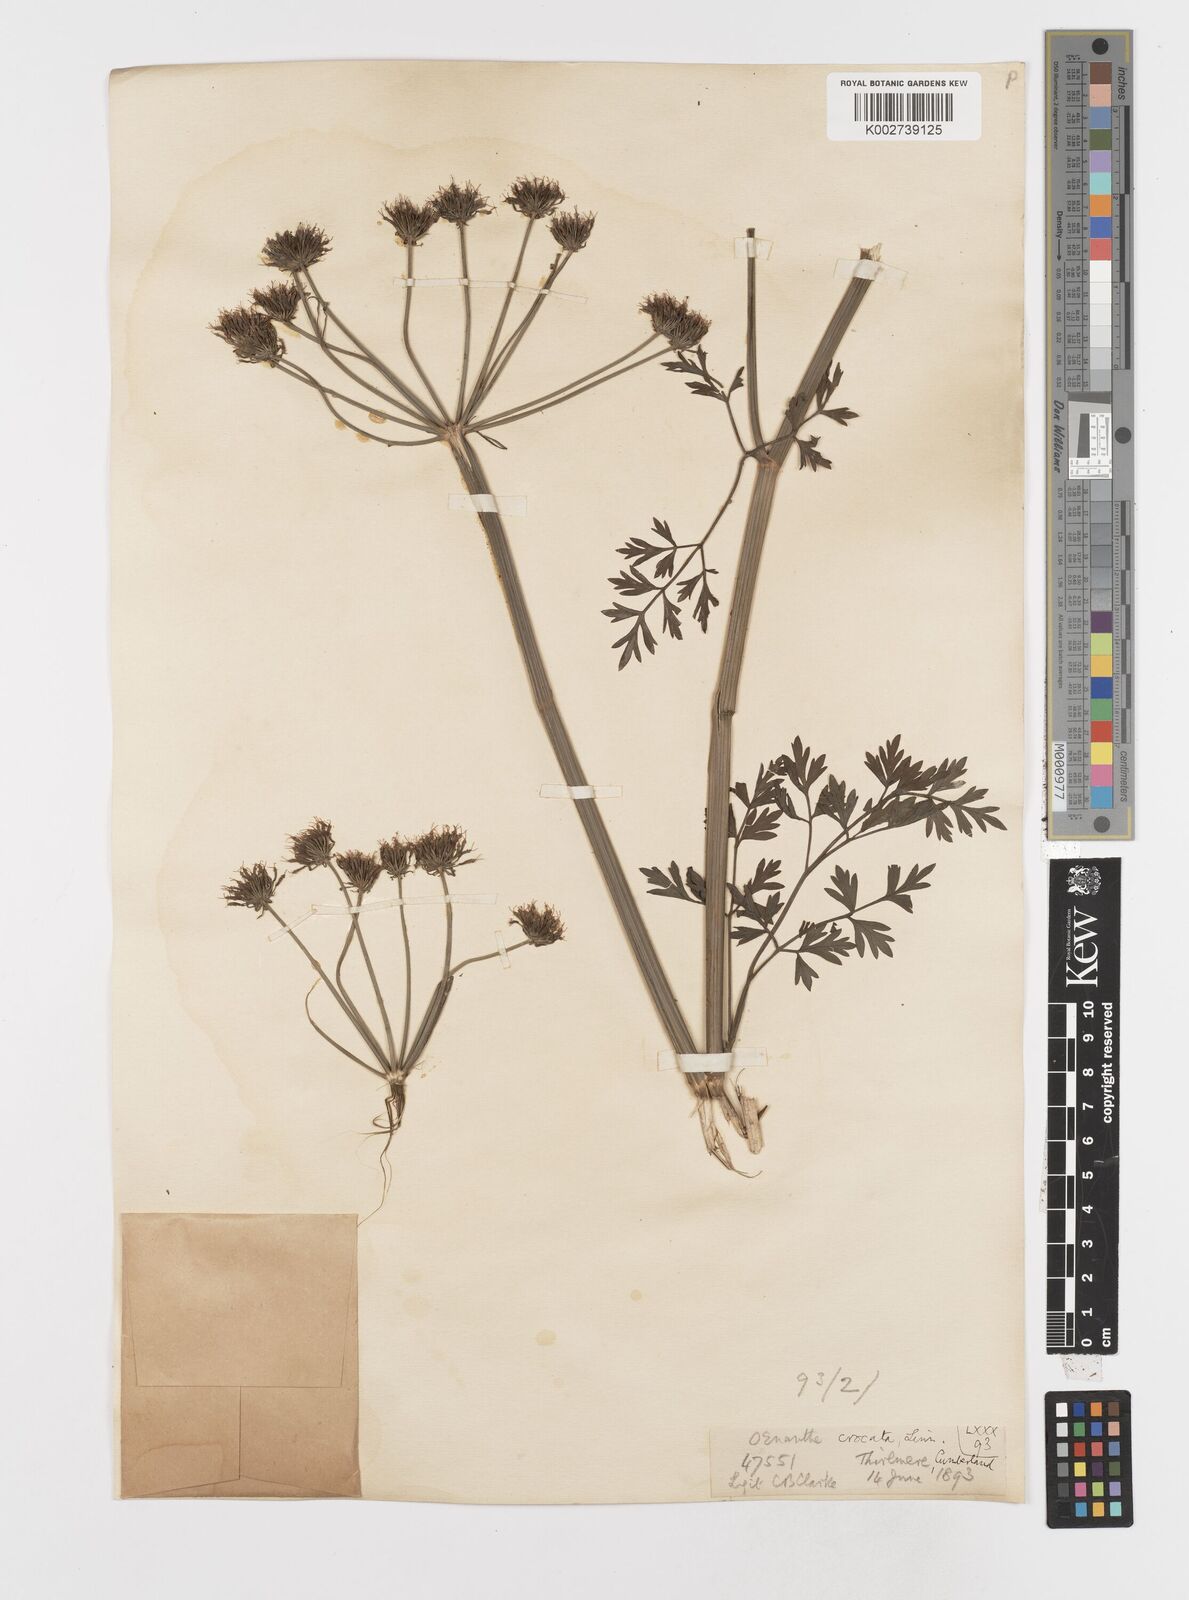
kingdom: Plantae
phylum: Tracheophyta
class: Magnoliopsida
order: Apiales
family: Apiaceae
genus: Oenanthe
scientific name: Oenanthe crocata
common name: Hemlock water-dropwort
